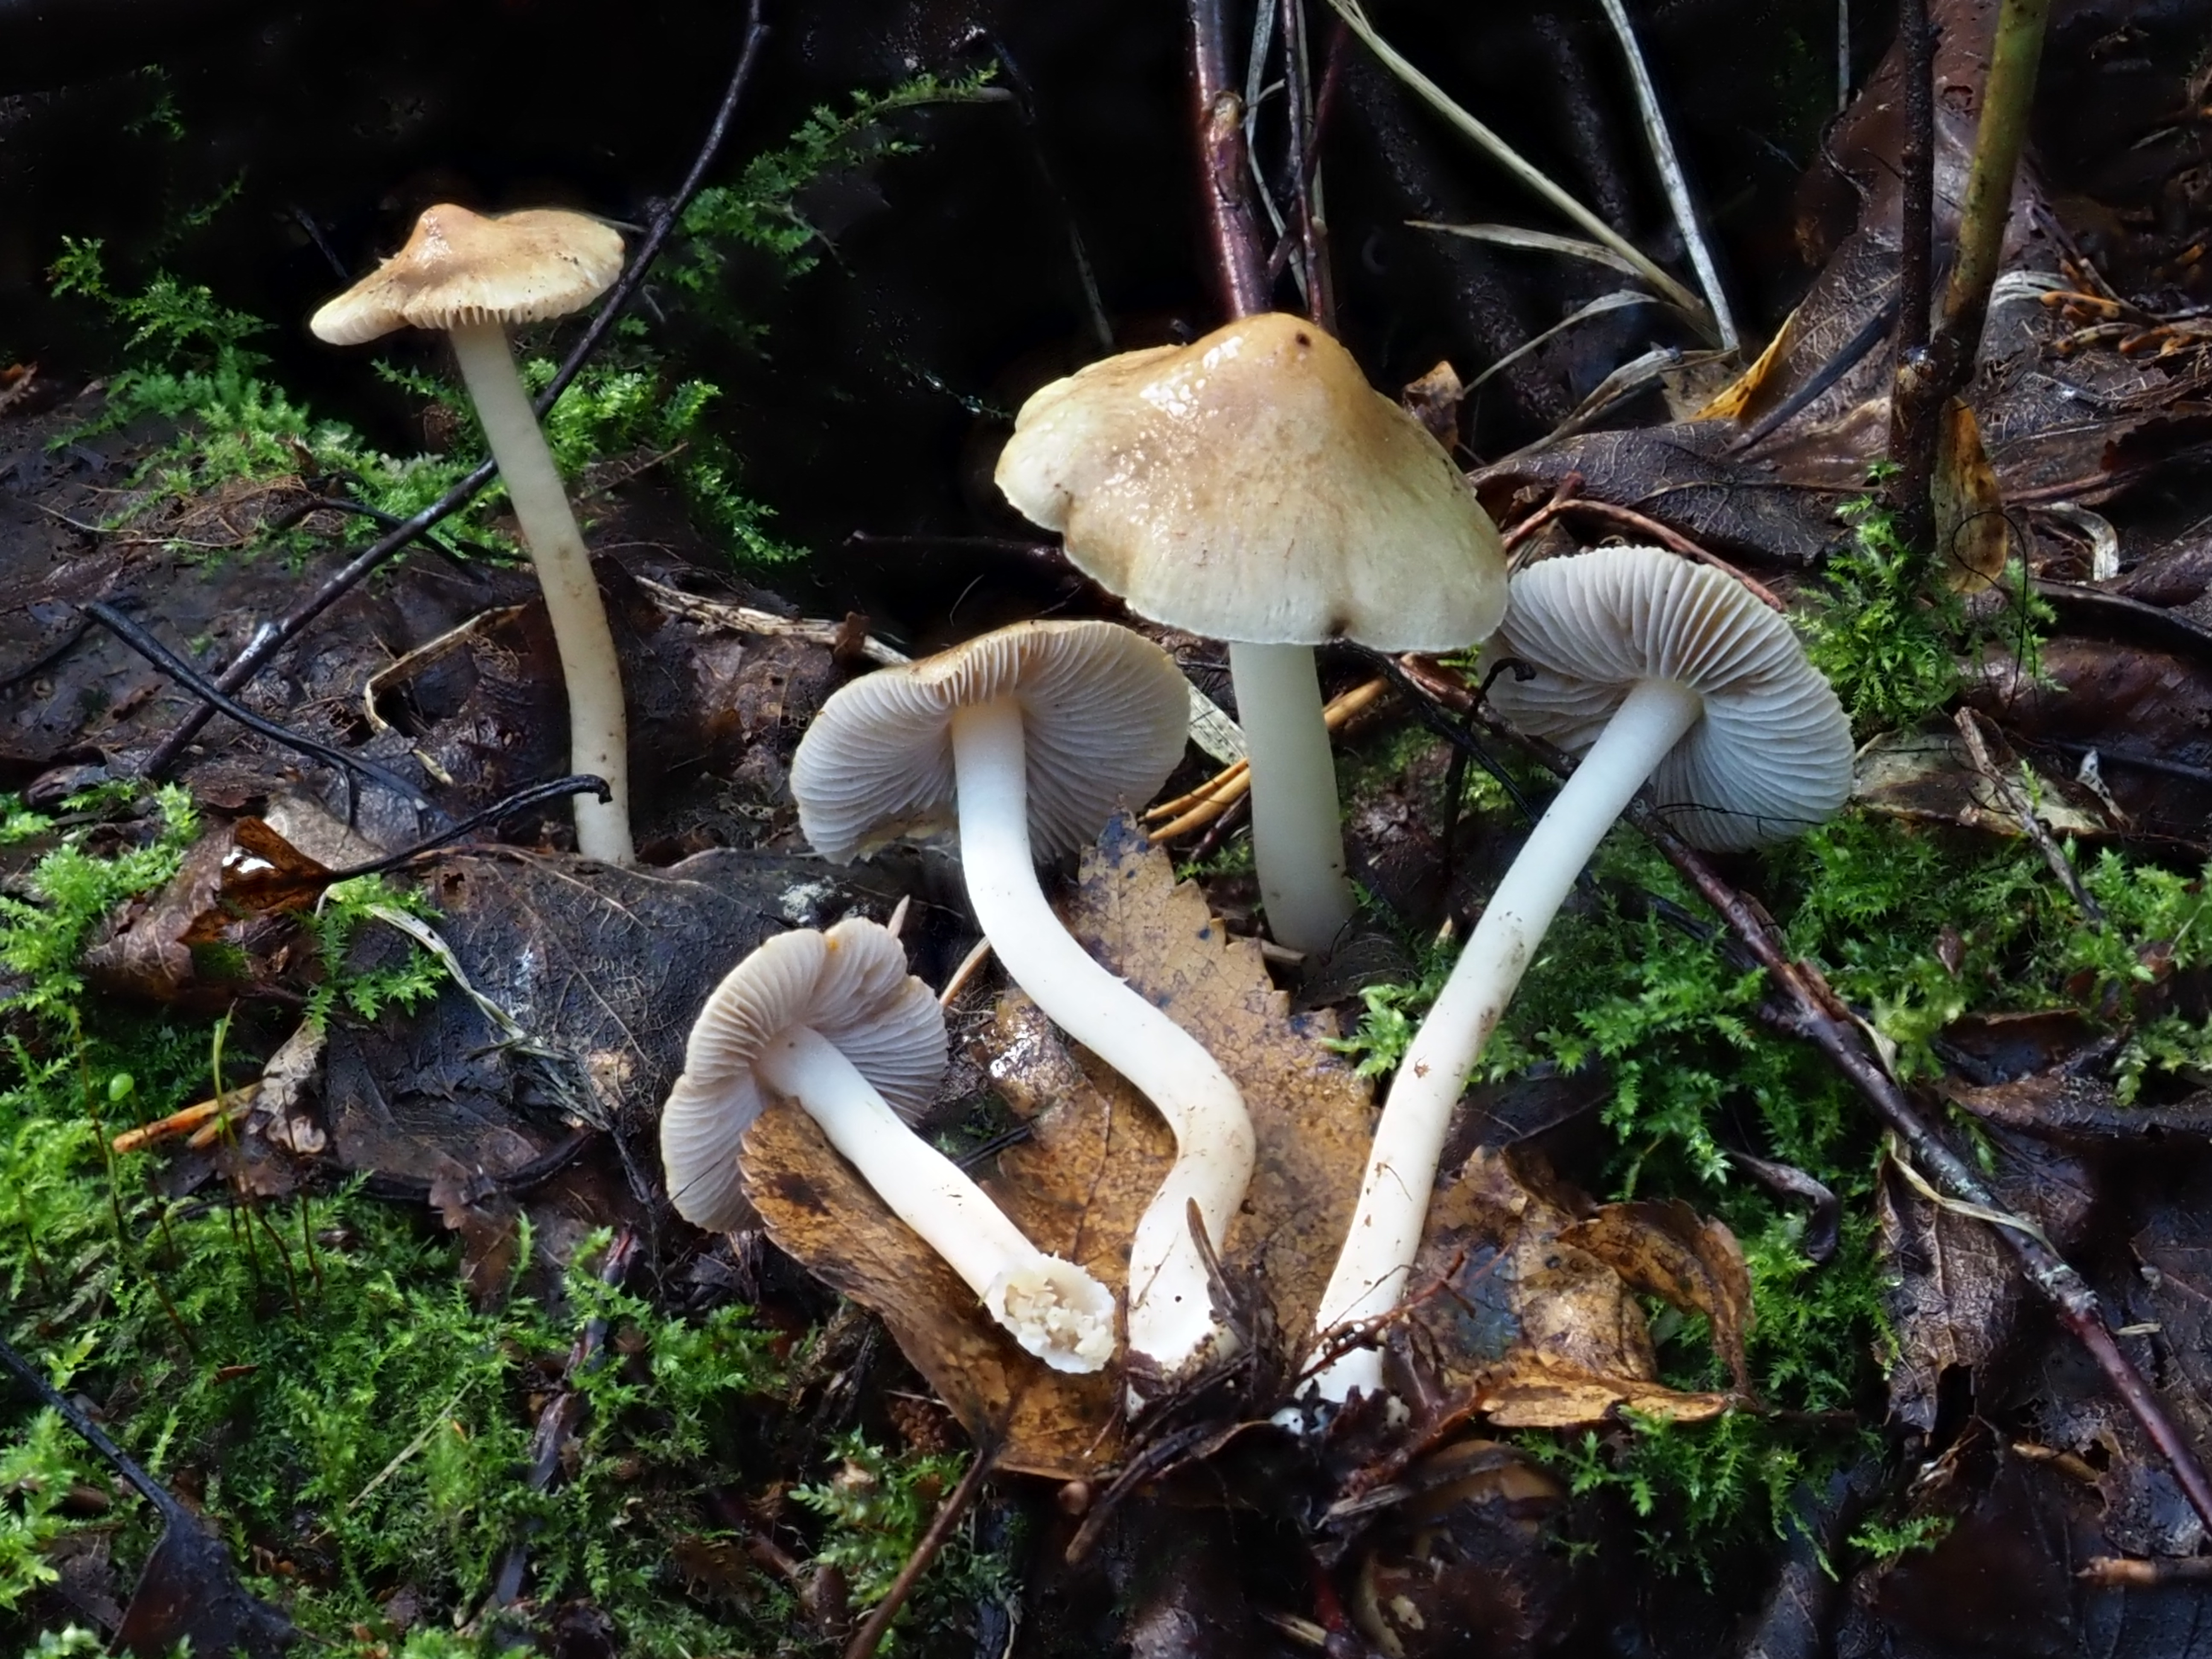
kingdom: Fungi
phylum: Basidiomycota
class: Agaricomycetes
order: Agaricales
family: Inocybaceae
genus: Inocybe
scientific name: Inocybe mixtilis
